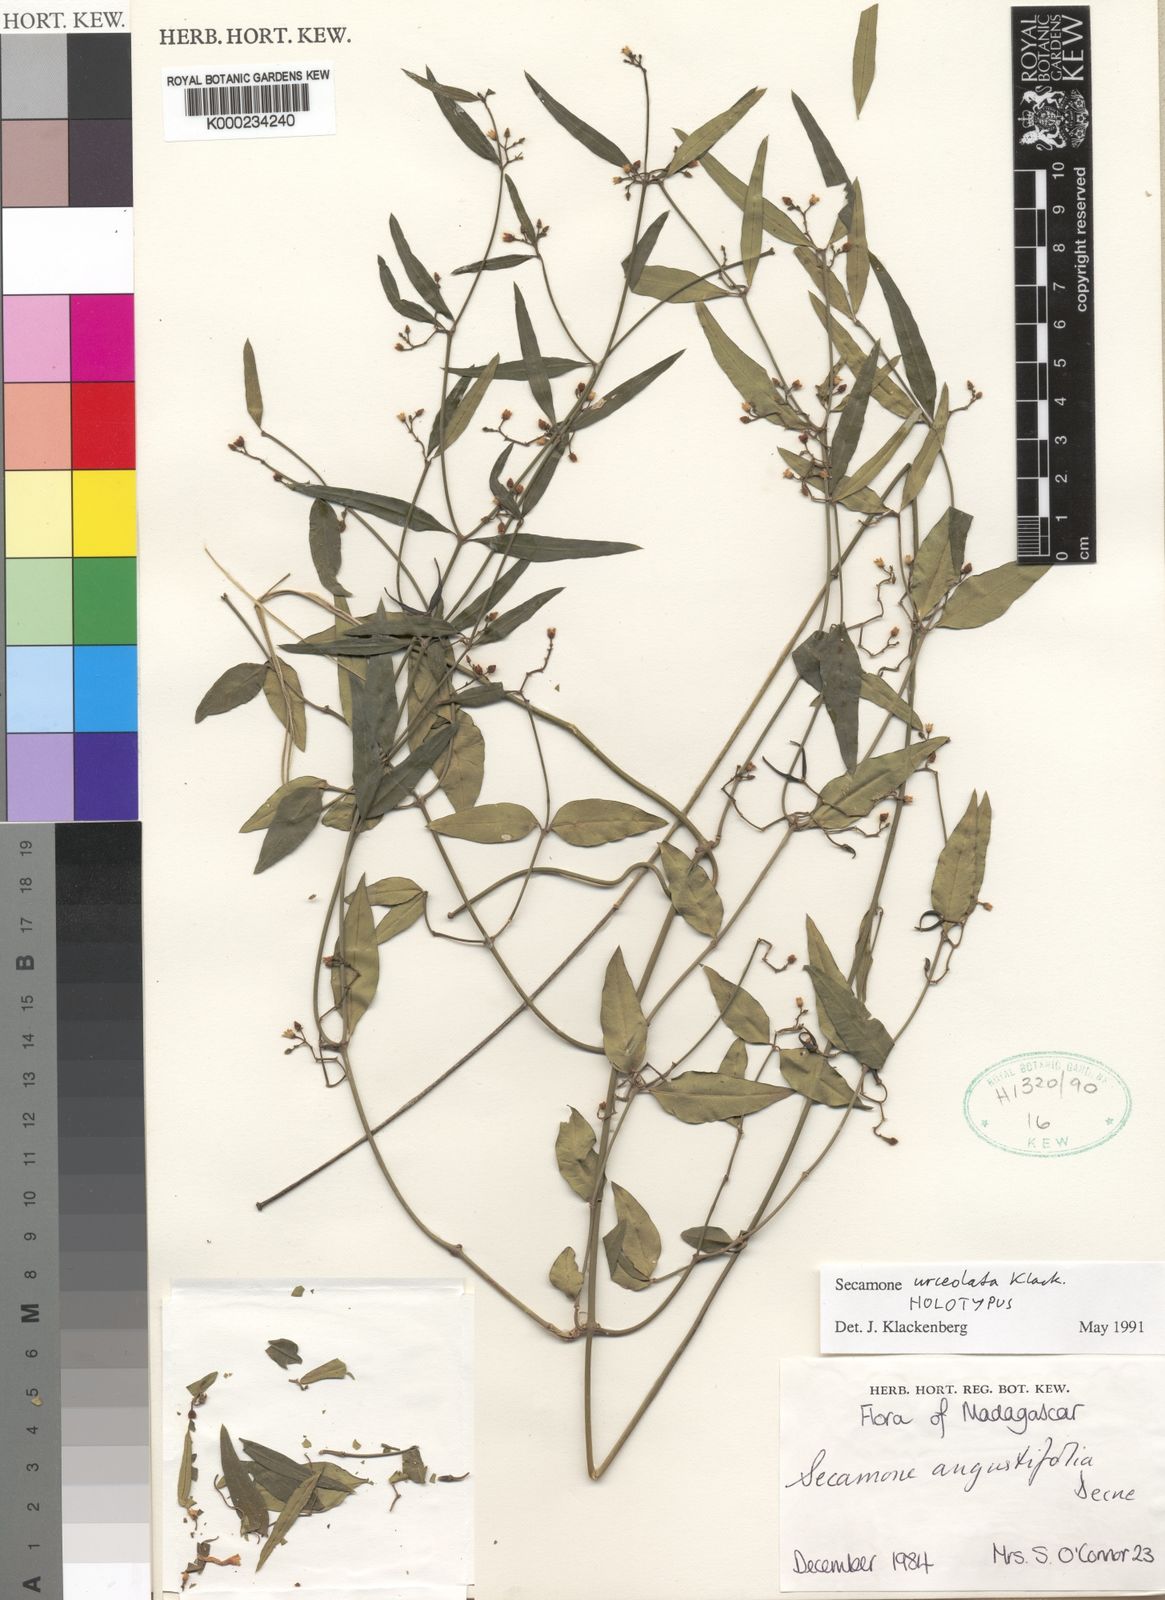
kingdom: Plantae
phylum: Tracheophyta
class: Magnoliopsida
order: Gentianales
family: Apocynaceae
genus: Secamone
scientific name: Secamone urceolata
